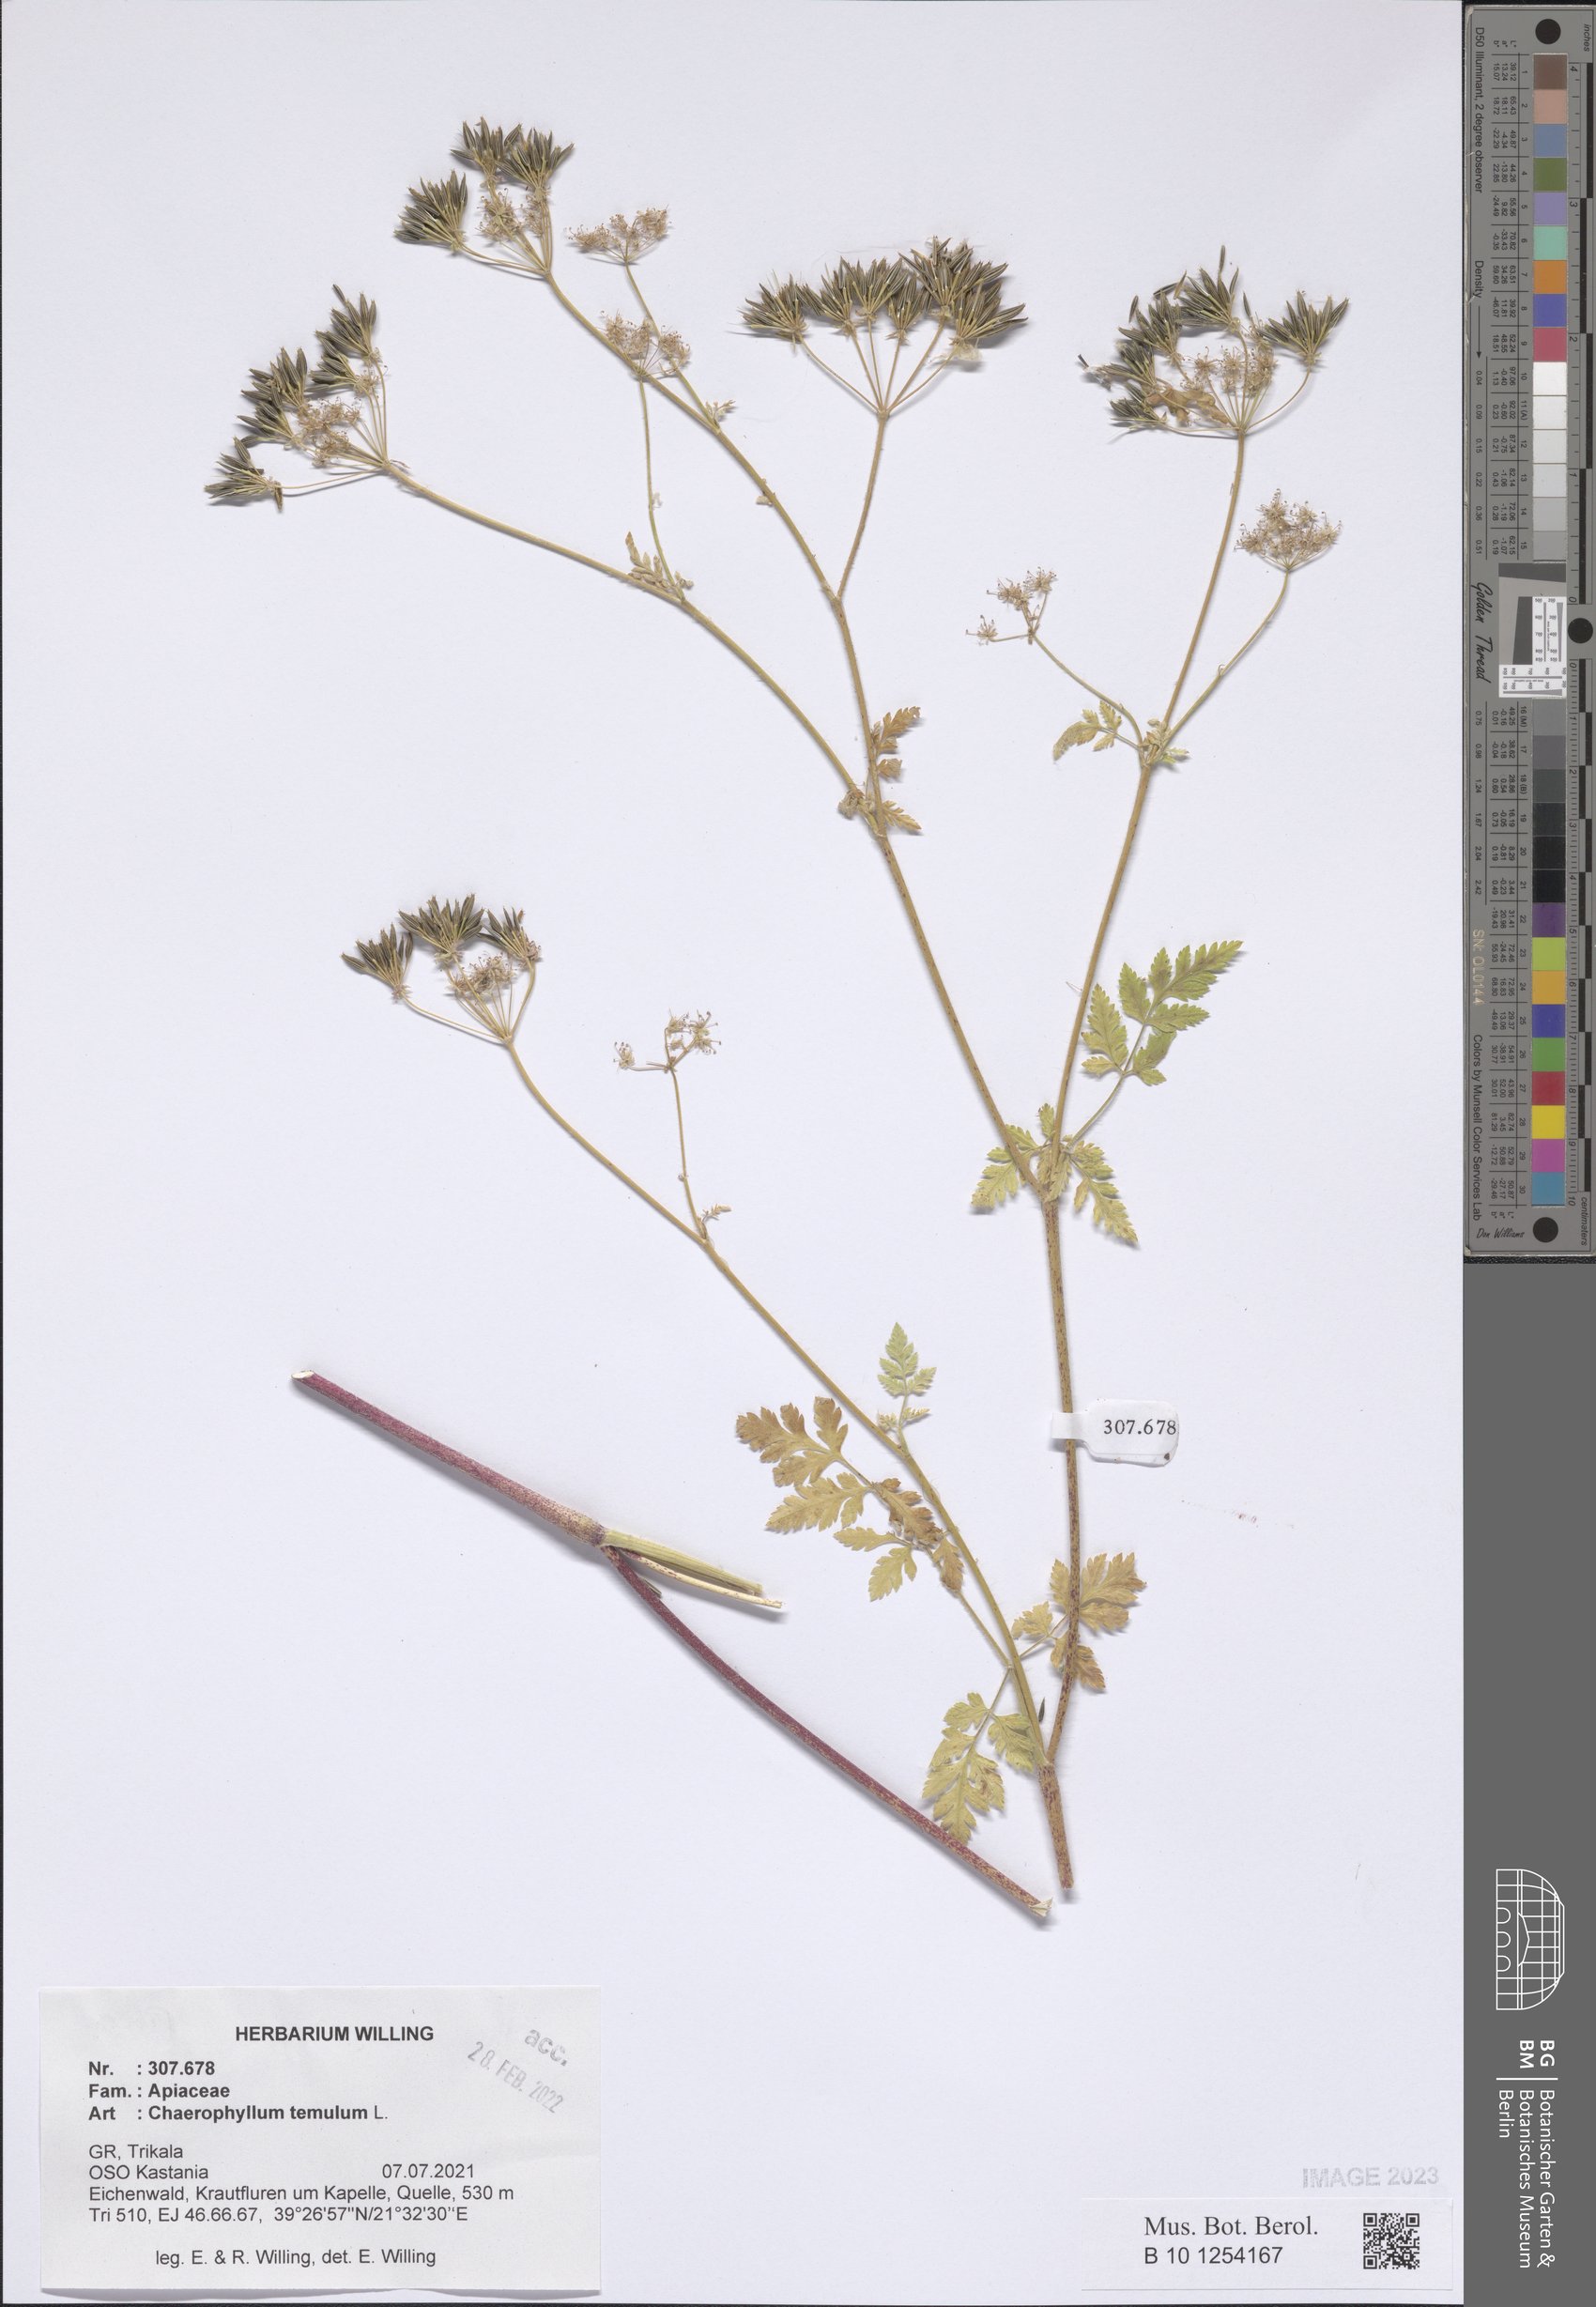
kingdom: Plantae
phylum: Tracheophyta
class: Magnoliopsida
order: Apiales
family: Apiaceae
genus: Chaerophyllum
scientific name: Chaerophyllum temulum
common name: Rough chervil
